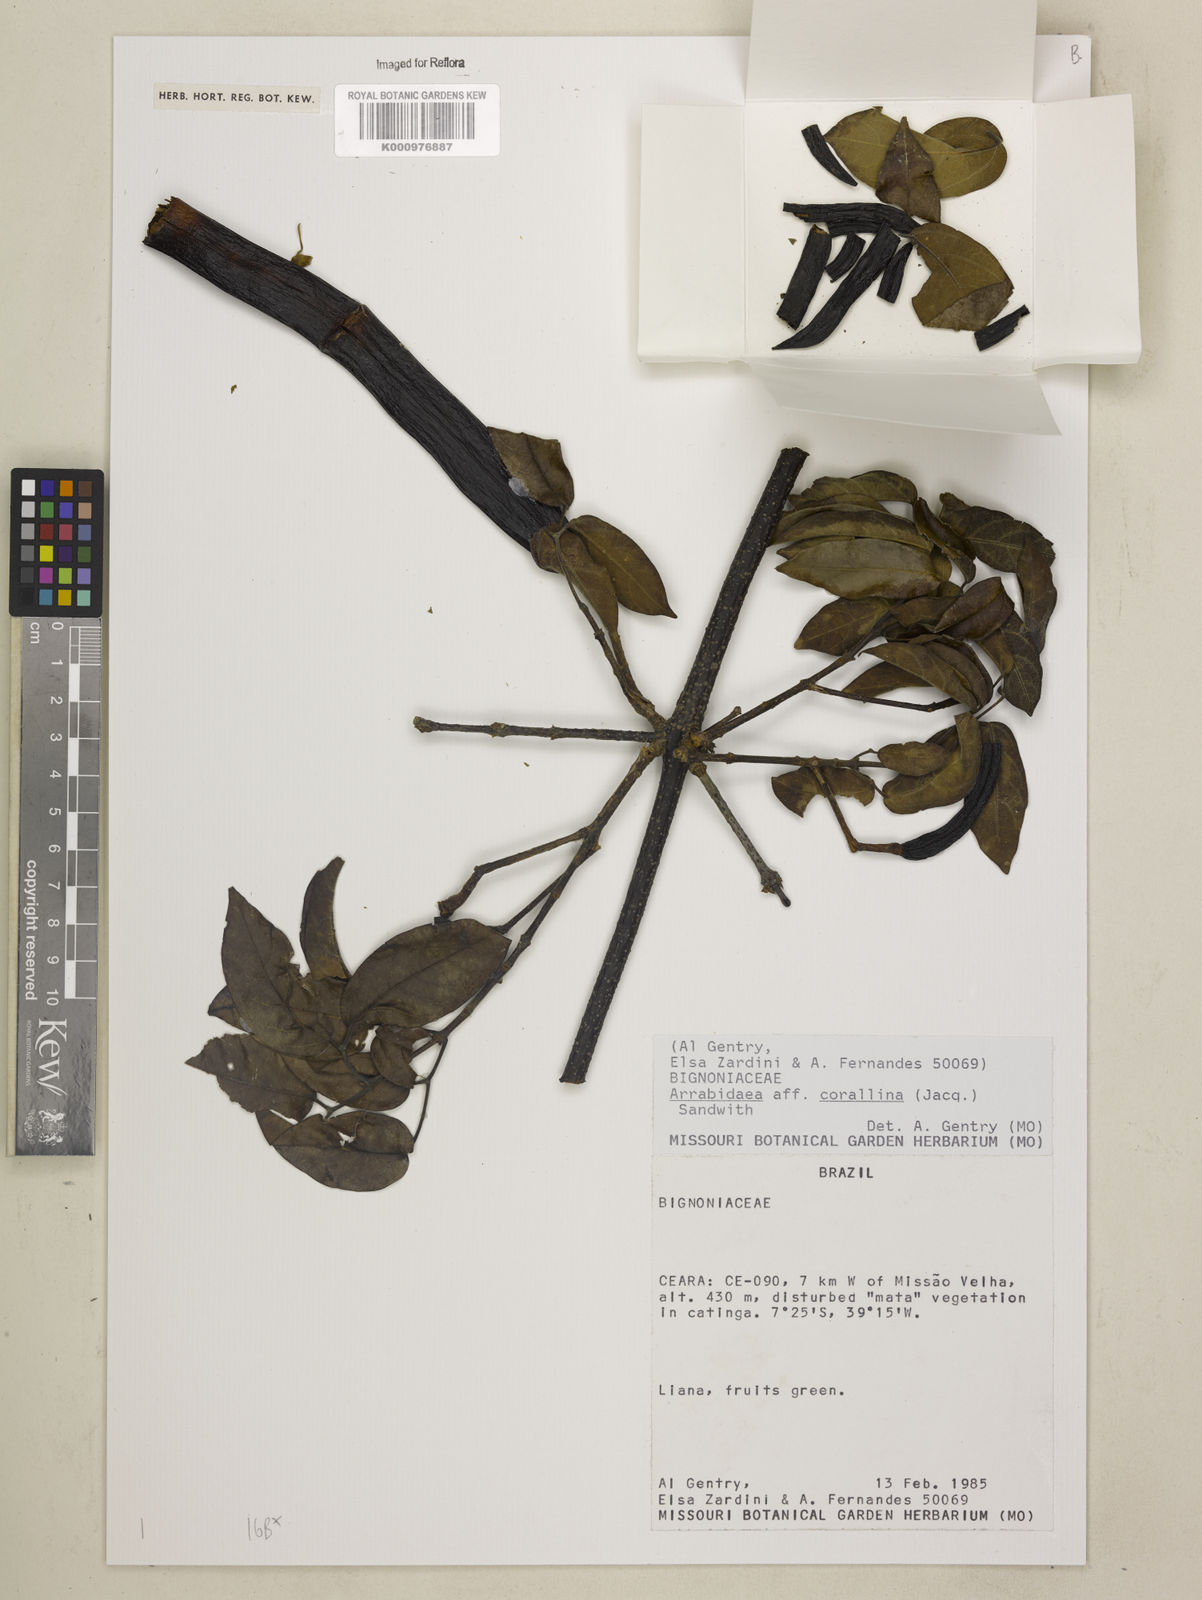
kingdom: Plantae
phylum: Tracheophyta
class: Magnoliopsida
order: Lamiales
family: Bignoniaceae
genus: Tanaecium
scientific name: Tanaecium dichotomum
